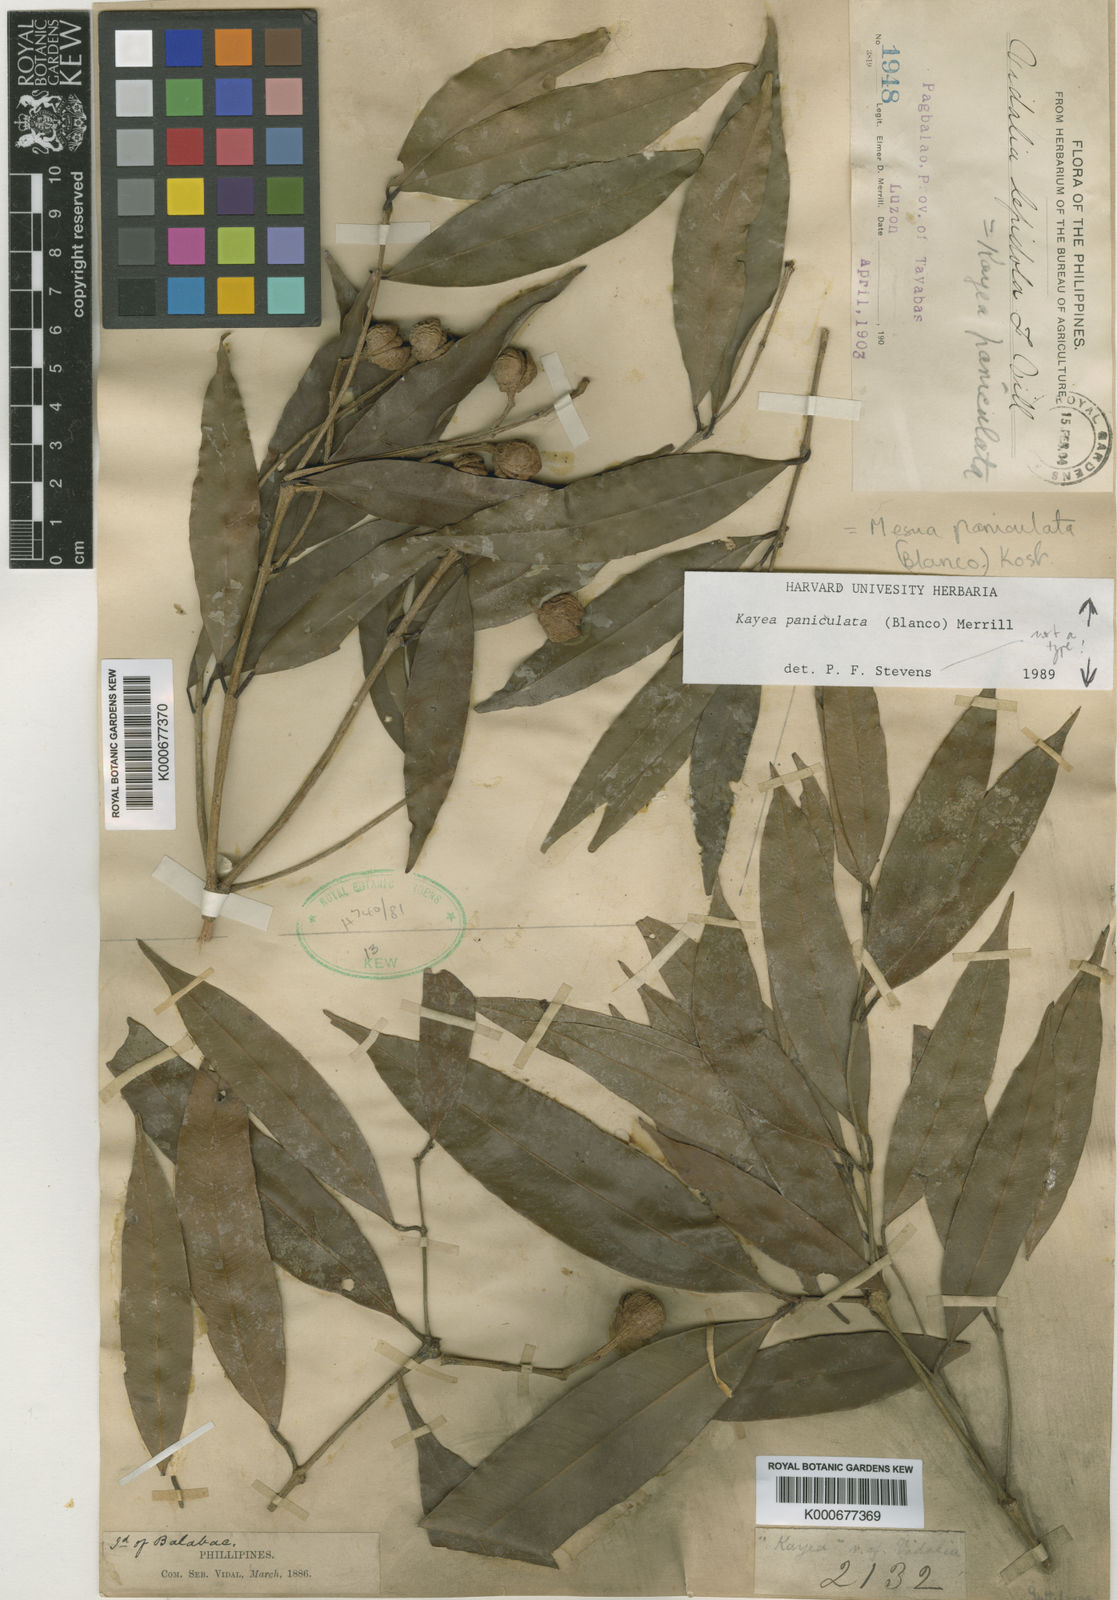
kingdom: Plantae
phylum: Tracheophyta
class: Magnoliopsida
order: Malpighiales
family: Calophyllaceae
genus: Kayea
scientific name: Kayea paniculata
